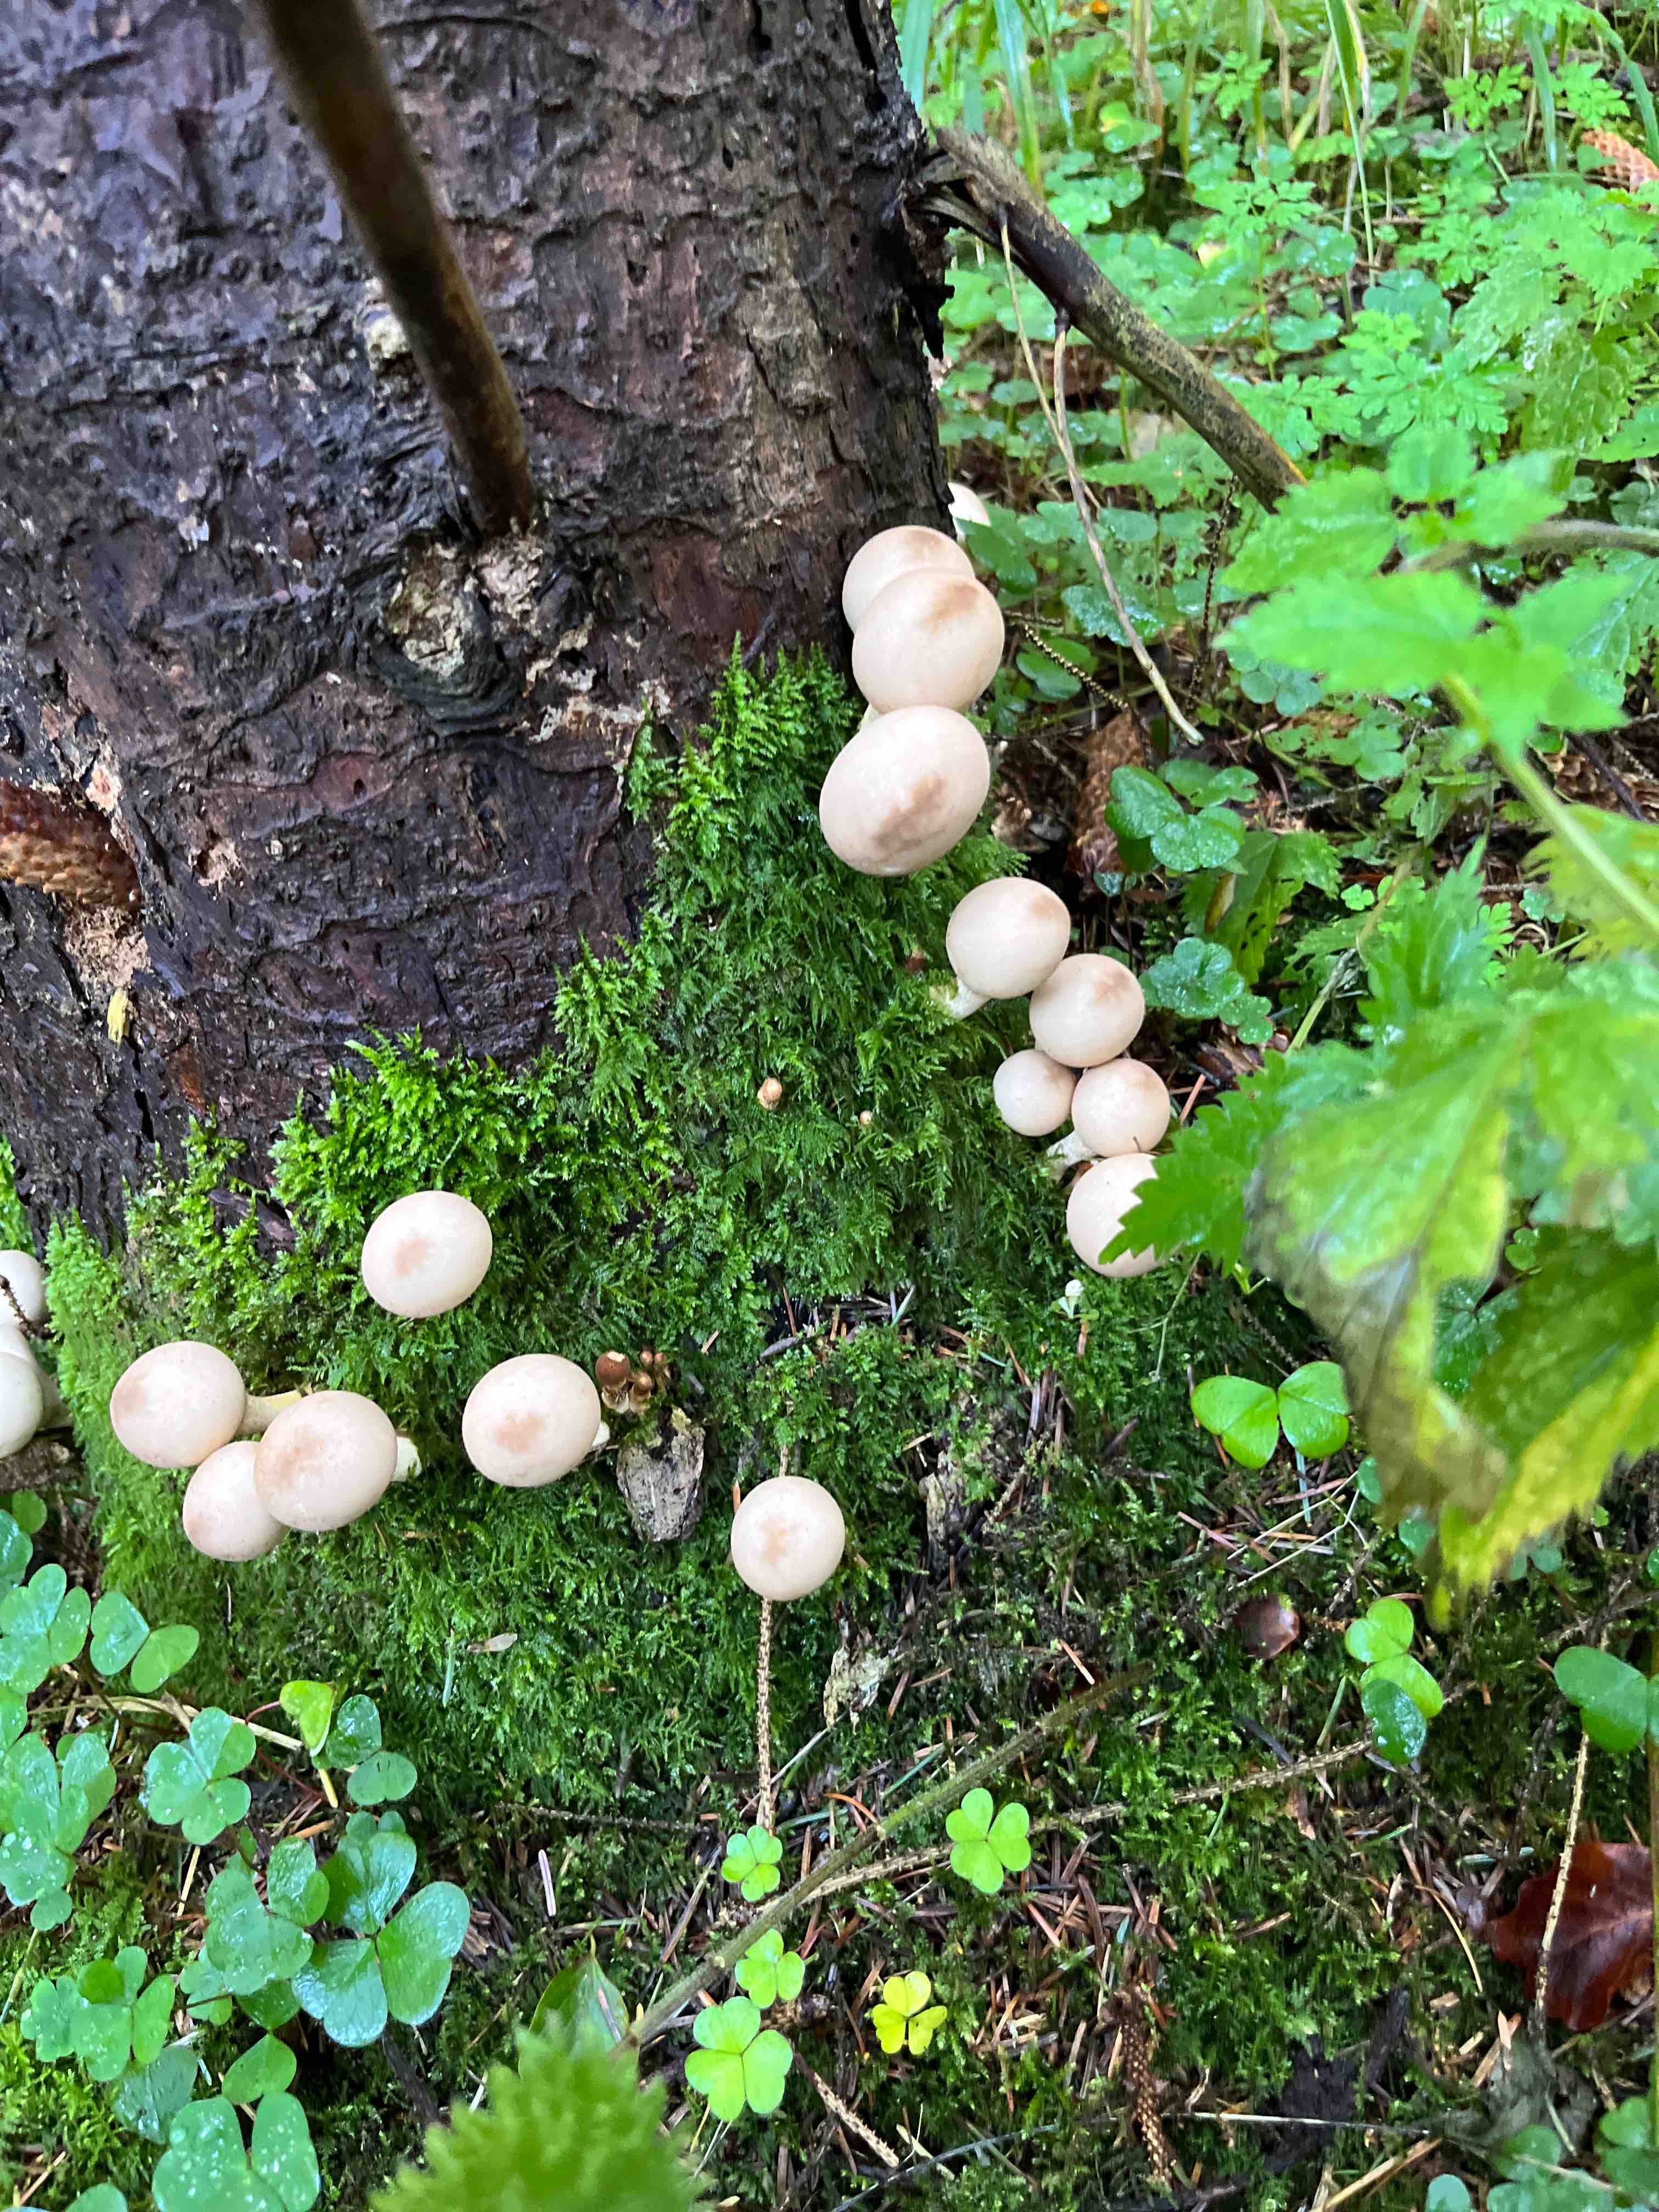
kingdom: Fungi
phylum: Basidiomycota
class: Agaricomycetes
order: Agaricales
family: Lycoperdaceae
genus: Apioperdon
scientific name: Apioperdon pyriforme
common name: pære-støvbold
